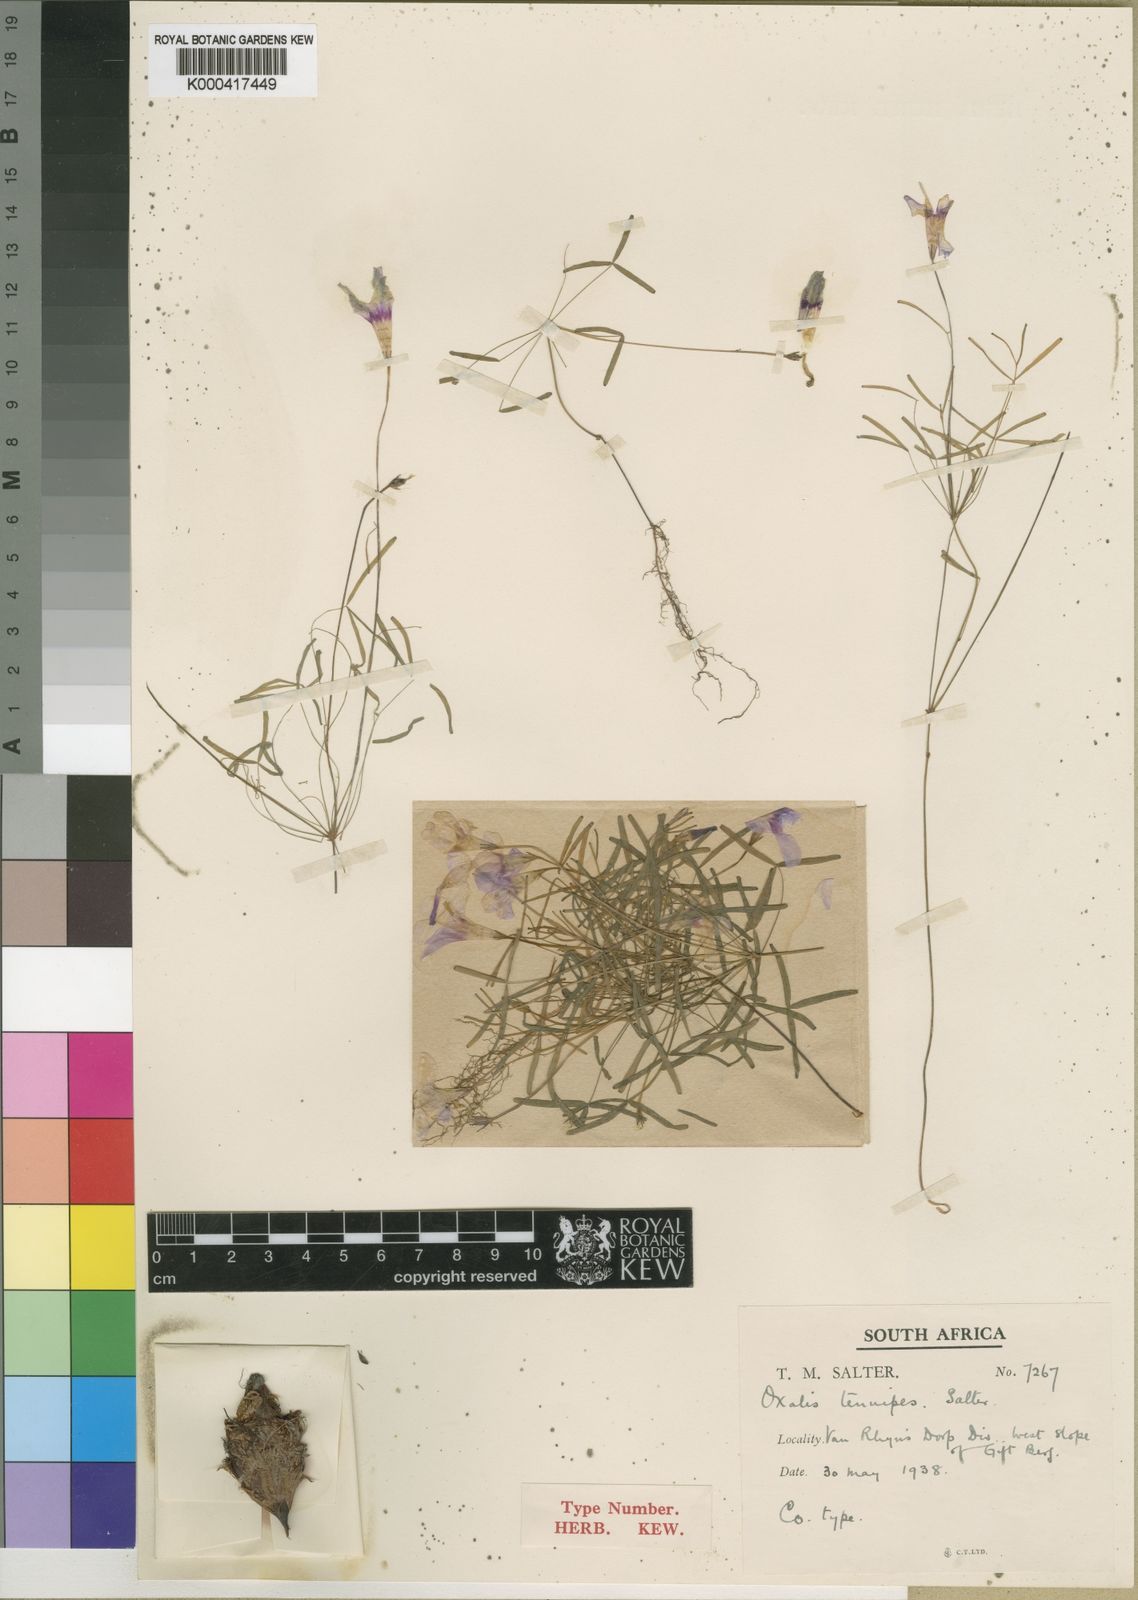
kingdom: Plantae
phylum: Tracheophyta
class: Magnoliopsida
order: Oxalidales
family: Oxalidaceae
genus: Oxalis
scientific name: Oxalis tenuipes
